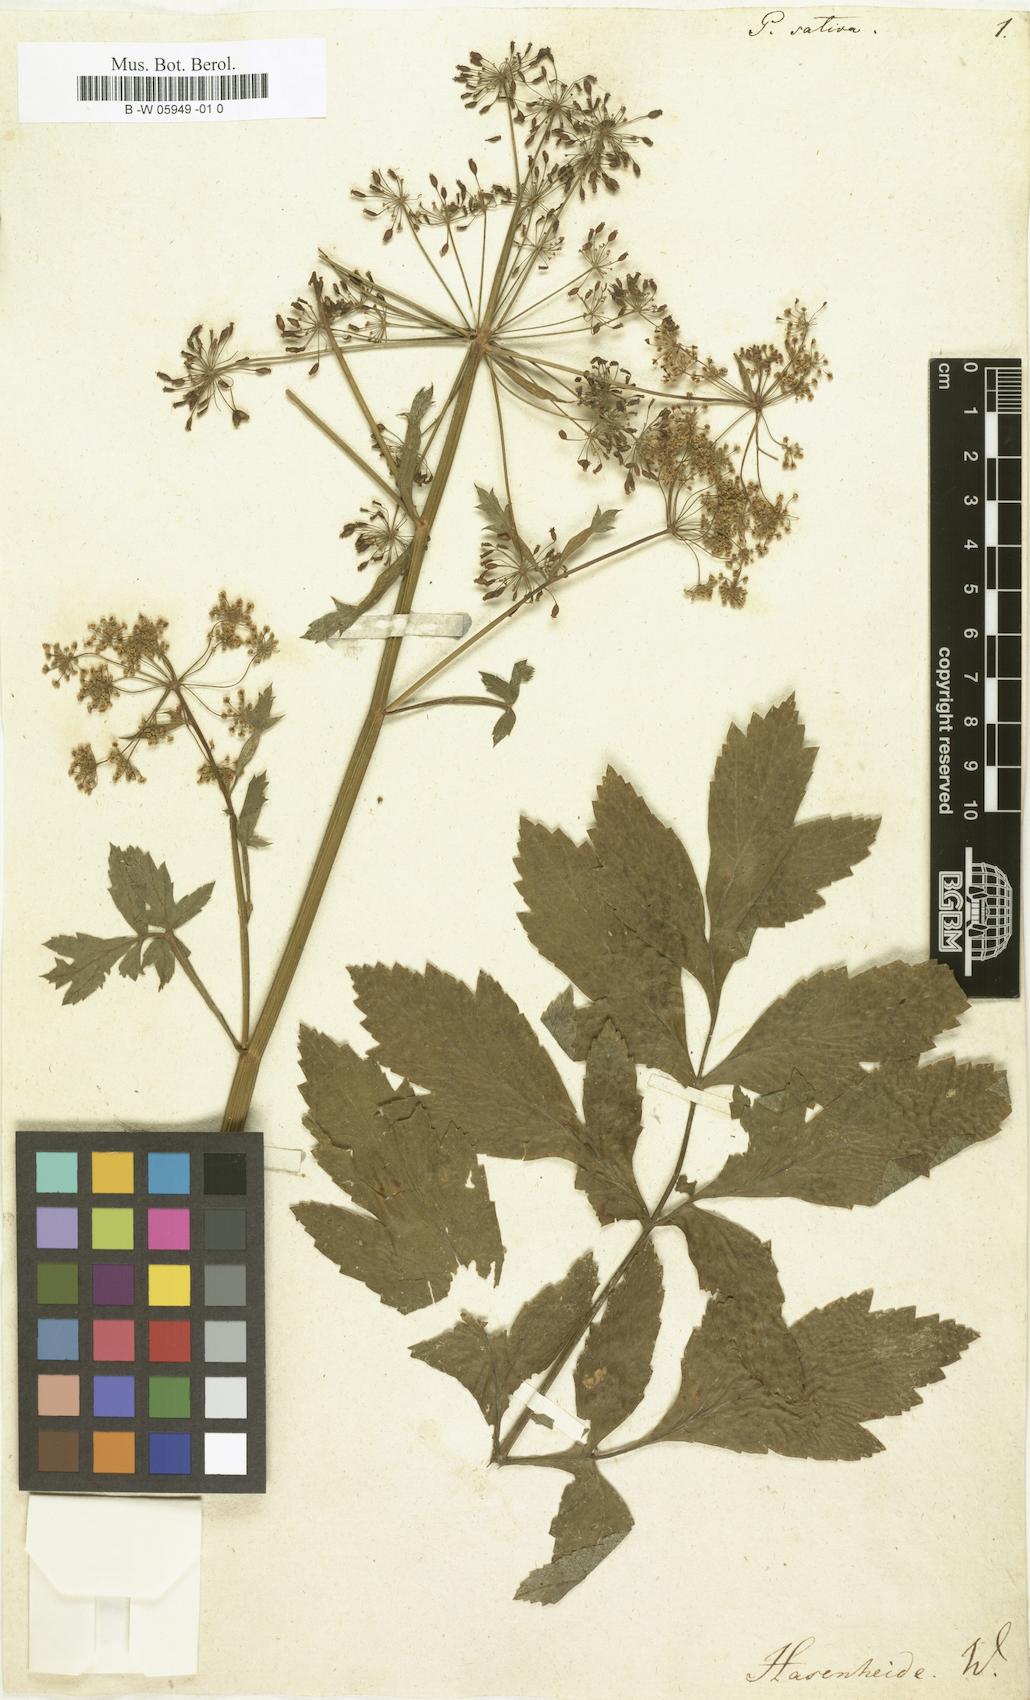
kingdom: Plantae
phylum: Tracheophyta
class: Magnoliopsida
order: Apiales
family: Apiaceae
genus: Pastinaca
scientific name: Pastinaca sativa
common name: Wild parsnip
